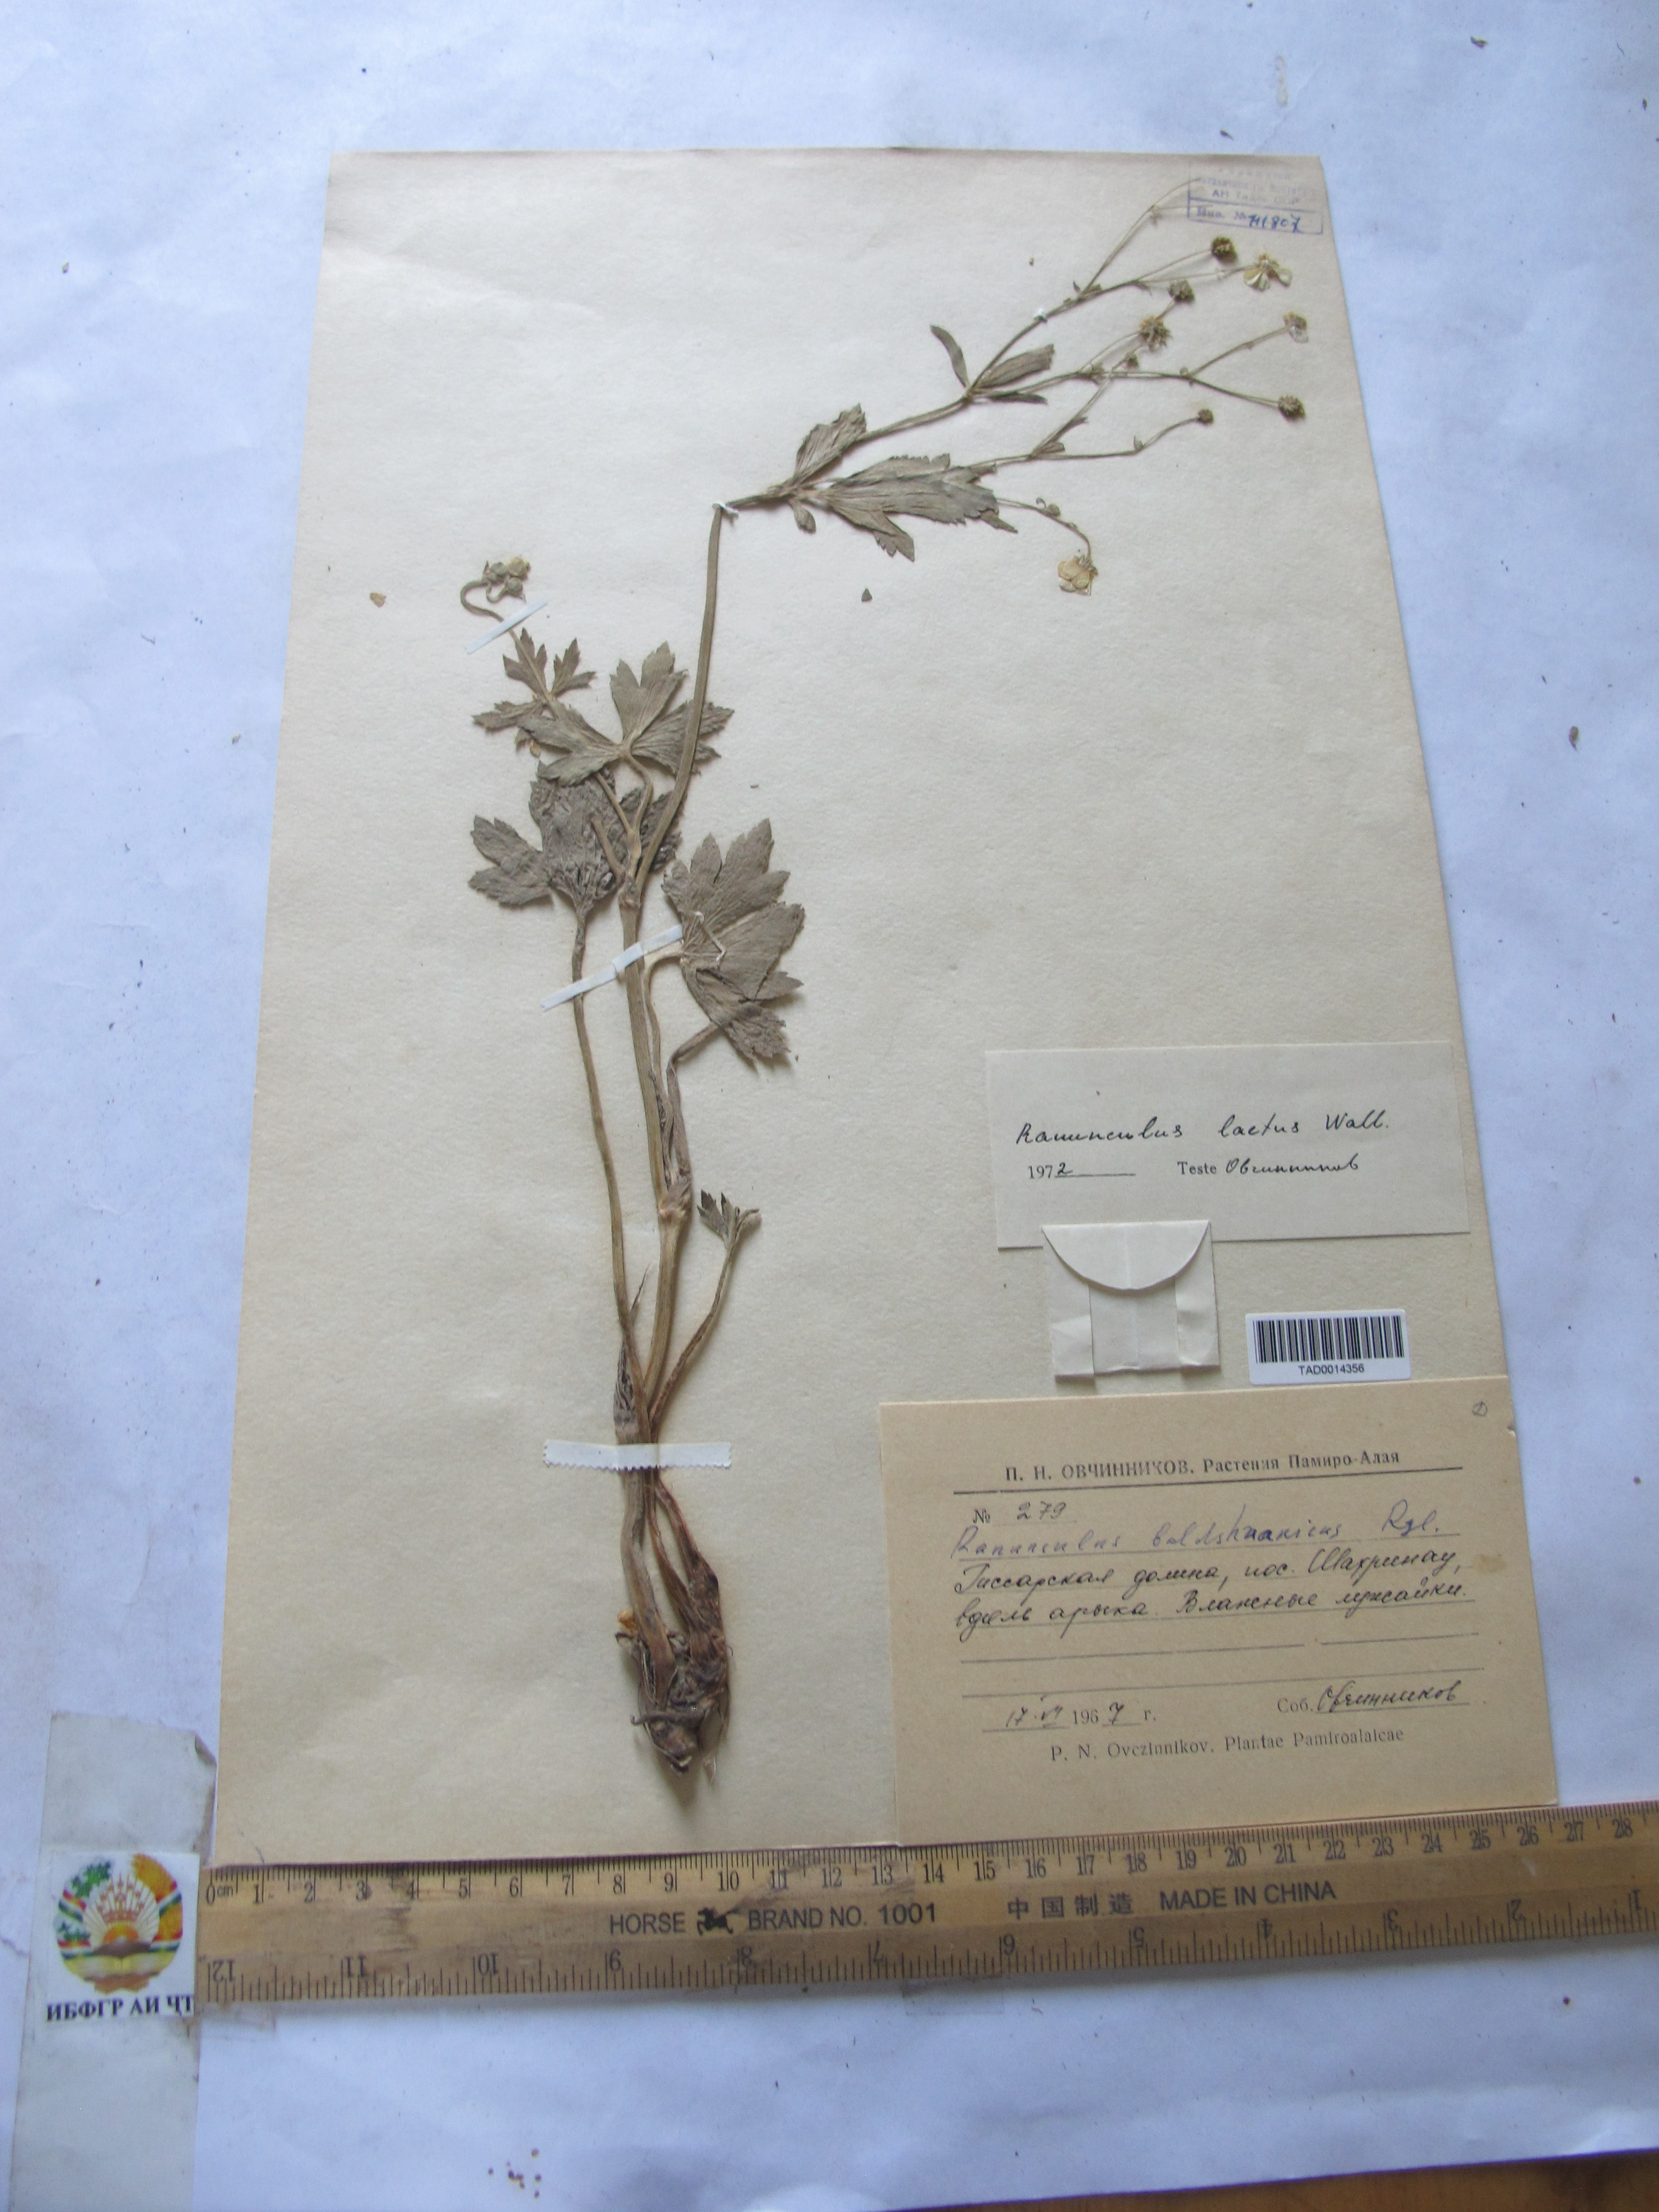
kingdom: Plantae
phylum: Tracheophyta
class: Magnoliopsida
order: Ranunculales
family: Ranunculaceae
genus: Ranunculus
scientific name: Ranunculus distans
